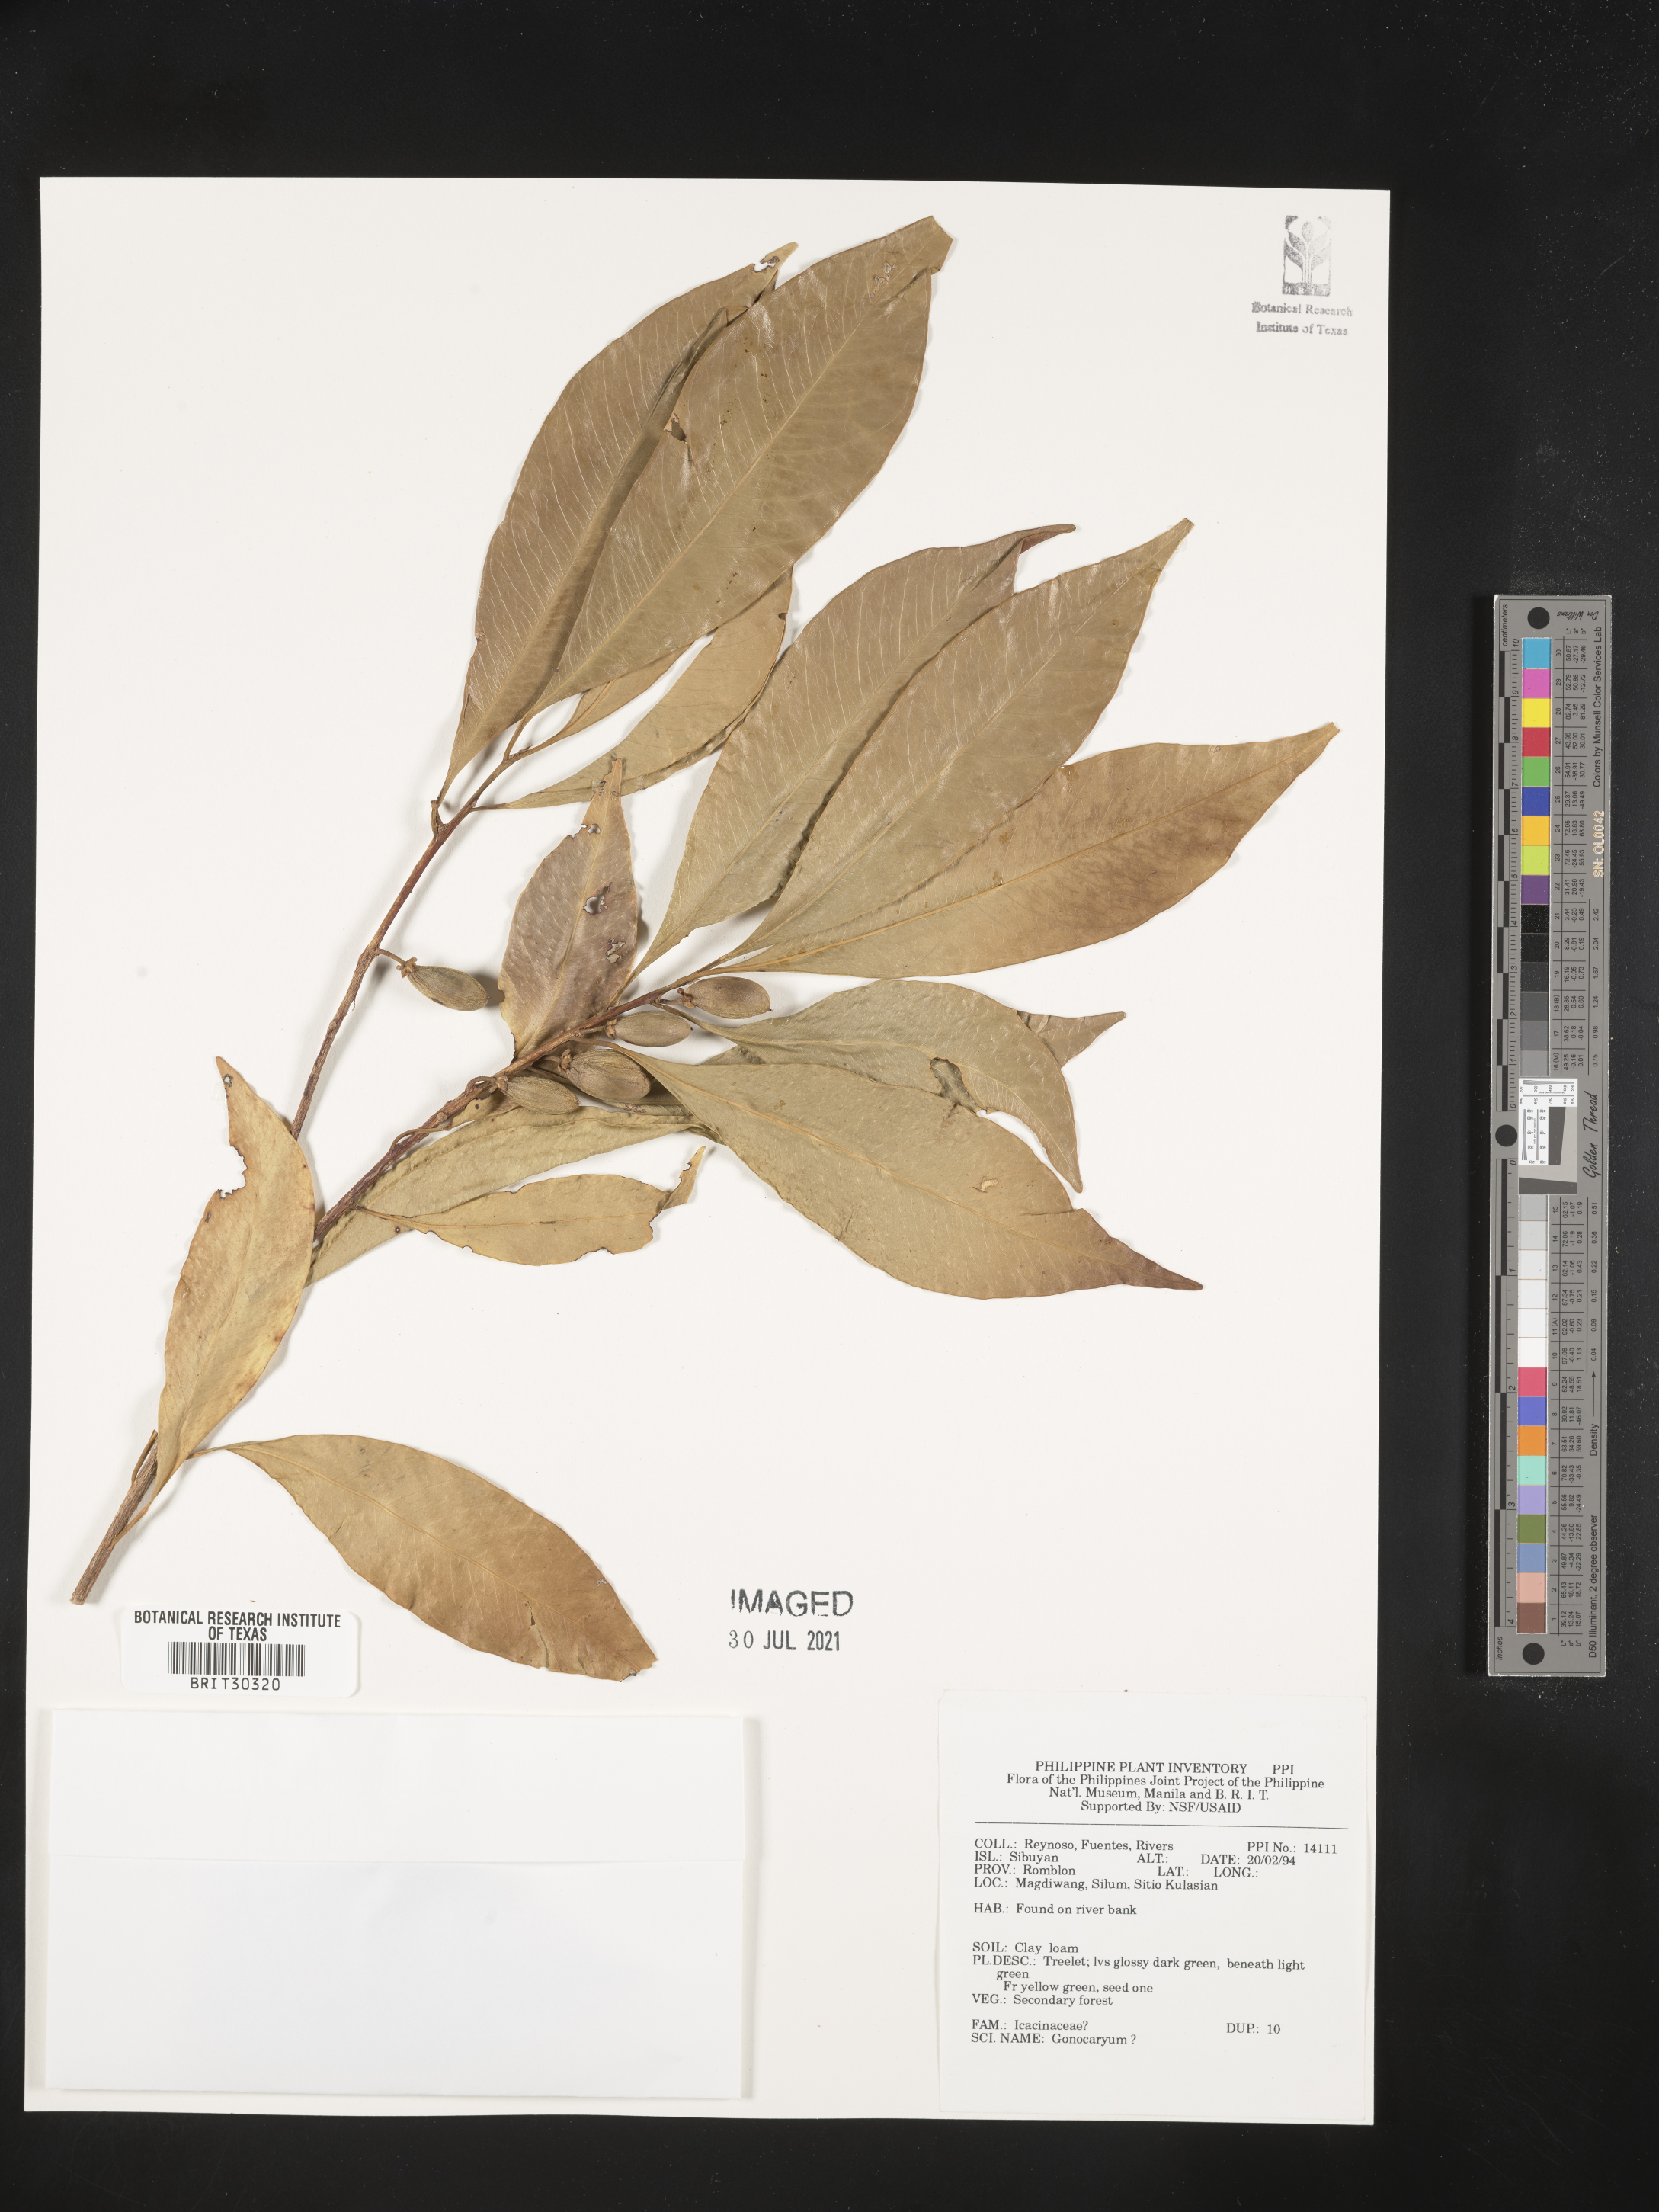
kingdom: Plantae
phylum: Tracheophyta
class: Magnoliopsida
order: Cardiopteridales
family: Cardiopteridaceae
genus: Gonocaryum
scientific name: Gonocaryum
